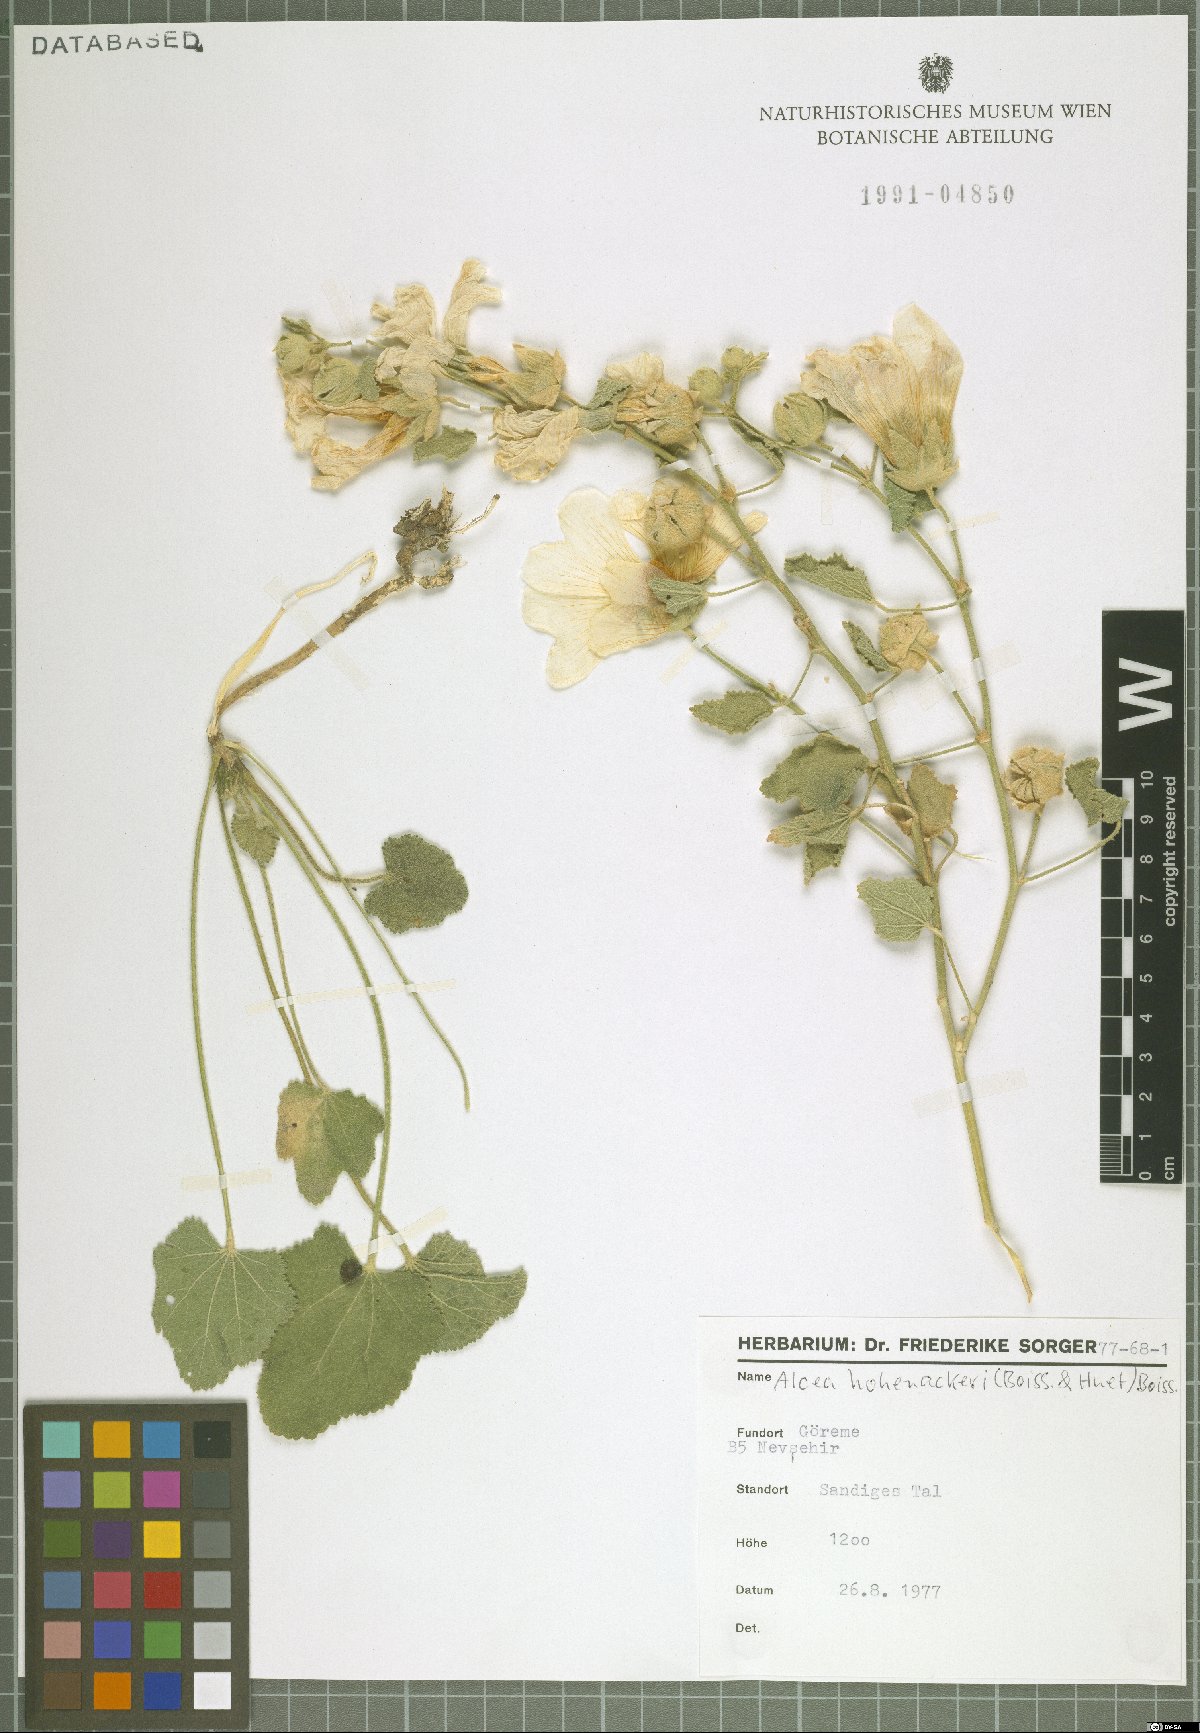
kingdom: Plantae
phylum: Tracheophyta
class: Magnoliopsida
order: Malvales
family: Malvaceae
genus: Alcea
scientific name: Alcea kurdica
